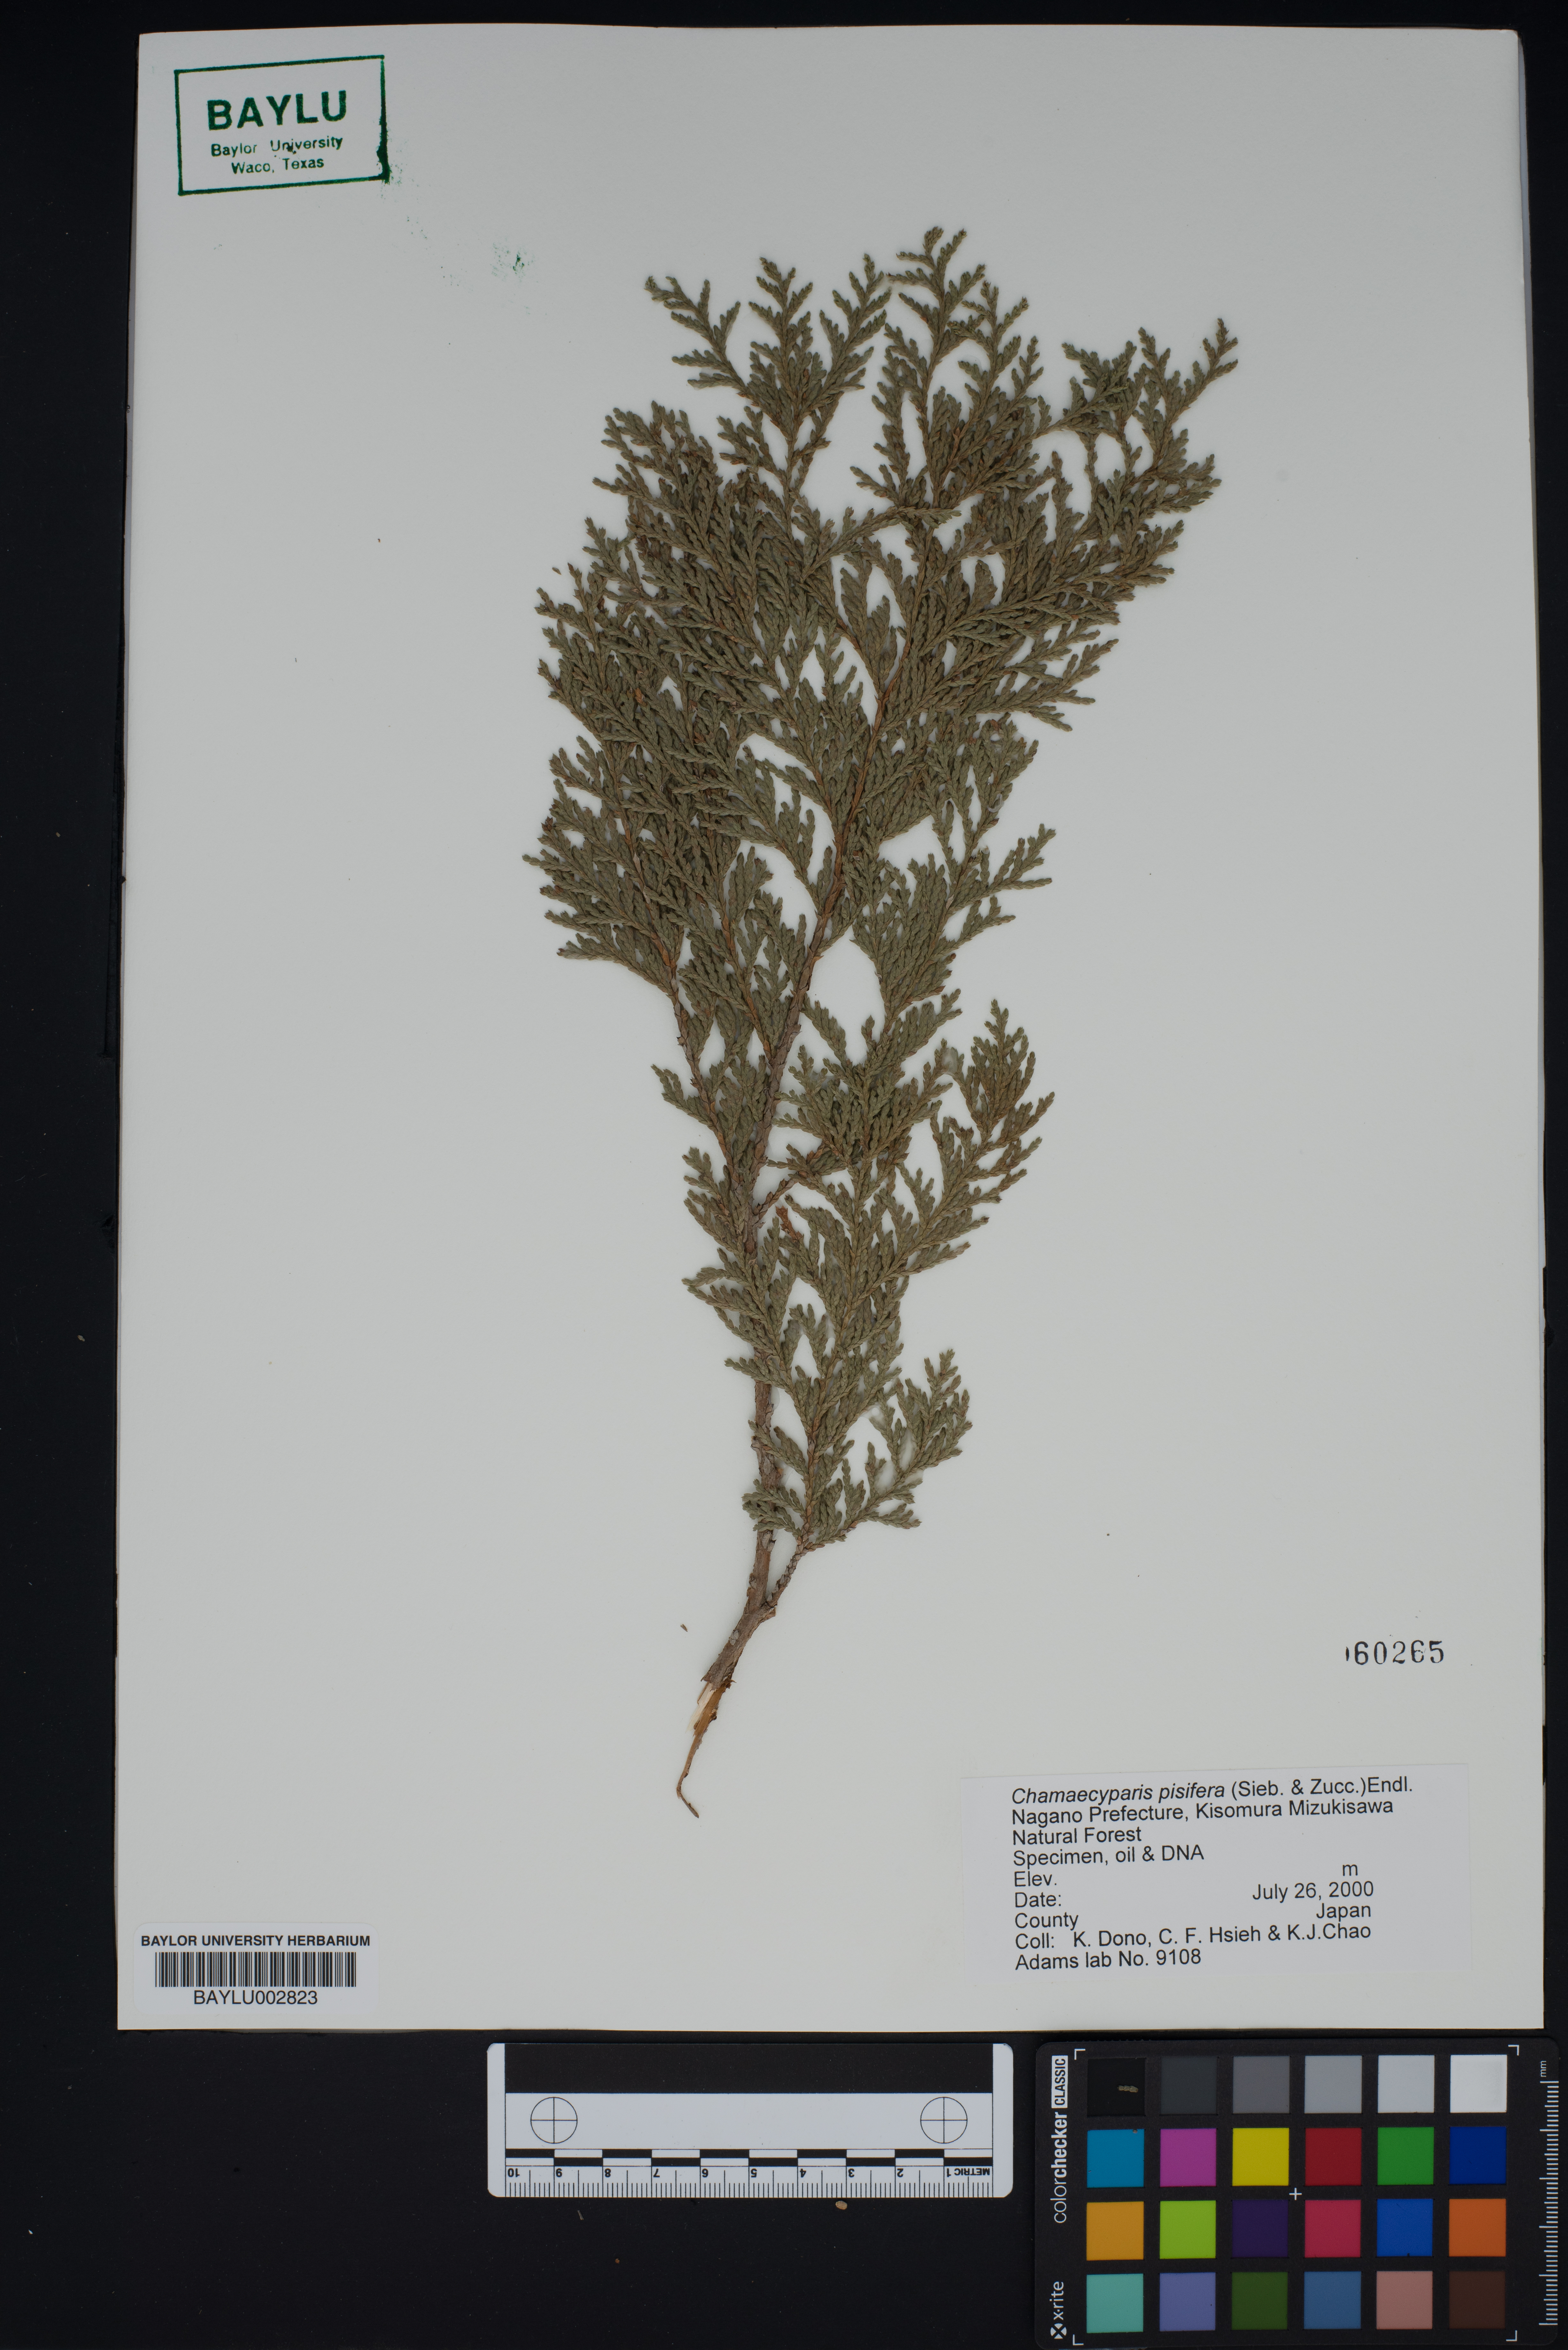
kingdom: Plantae
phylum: Tracheophyta
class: Pinopsida
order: Pinales
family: Cupressaceae
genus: Chamaecyparis
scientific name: Chamaecyparis pisifera
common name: Sawara cypress
